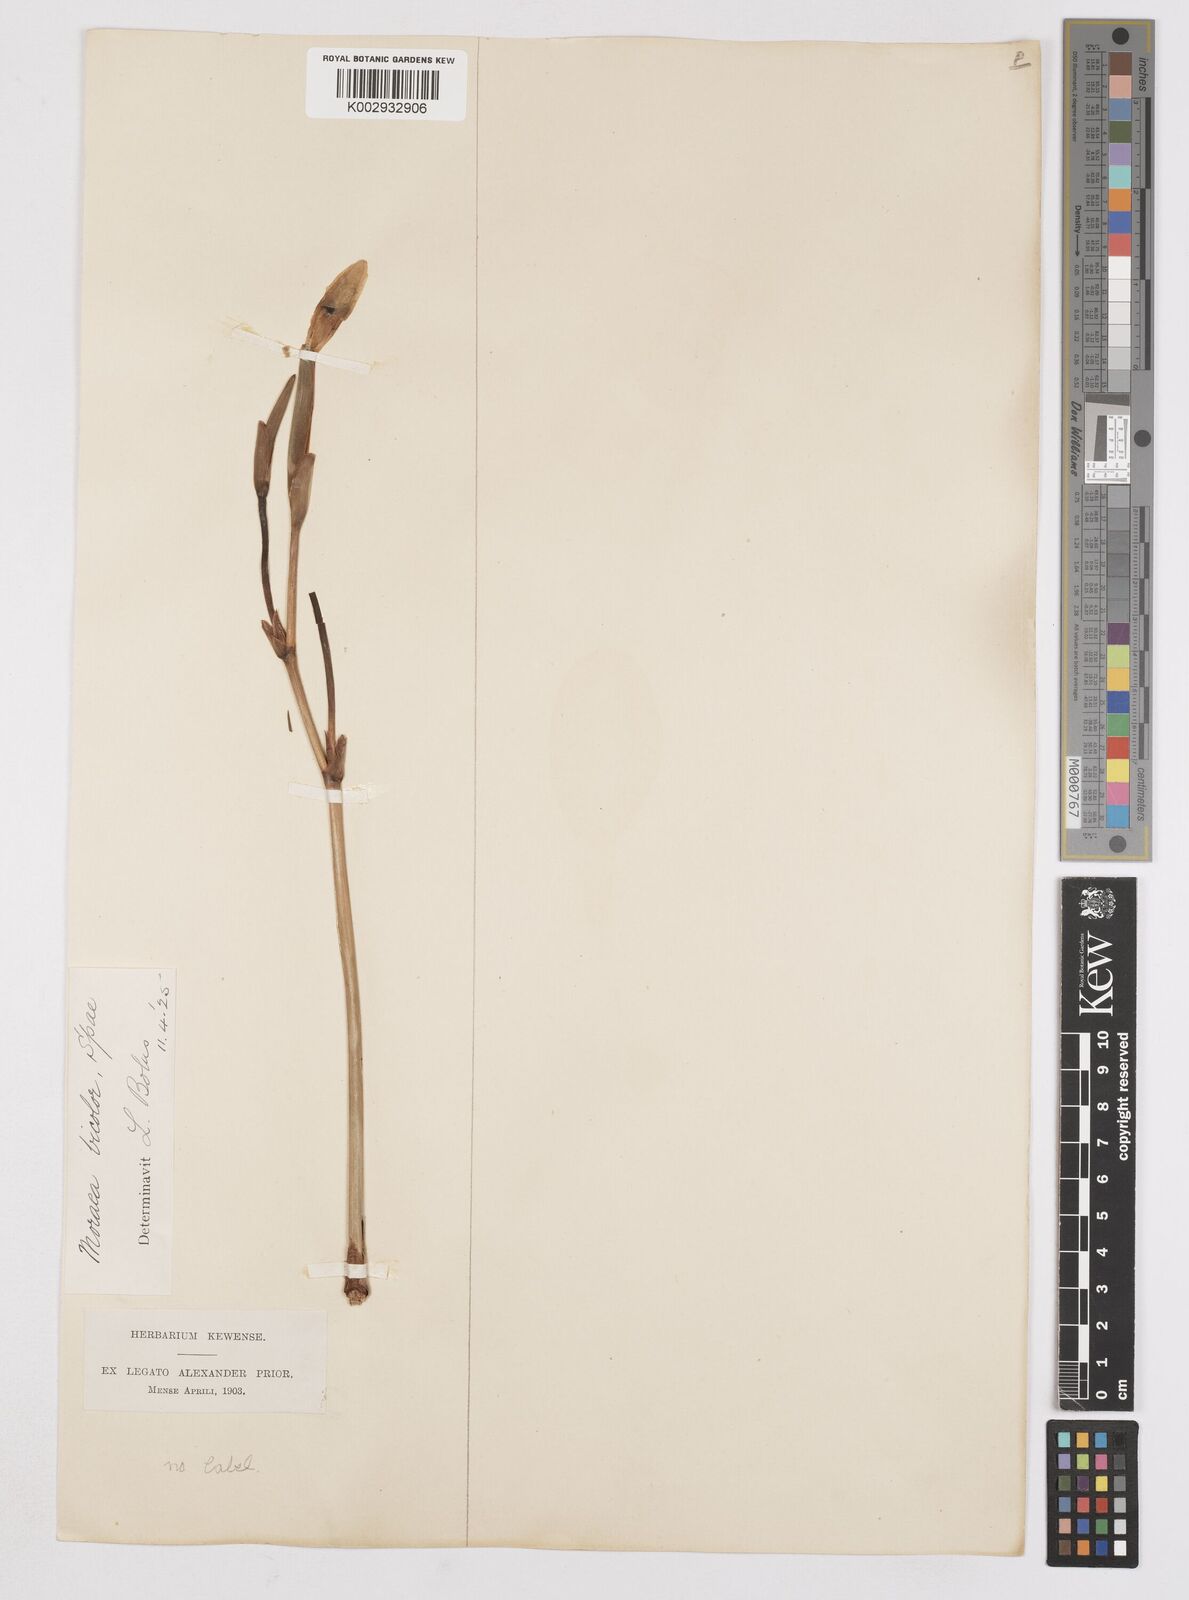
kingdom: Plantae
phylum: Tracheophyta
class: Liliopsida
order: Asparagales
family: Iridaceae
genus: Dietes
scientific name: Dietes bicolor
